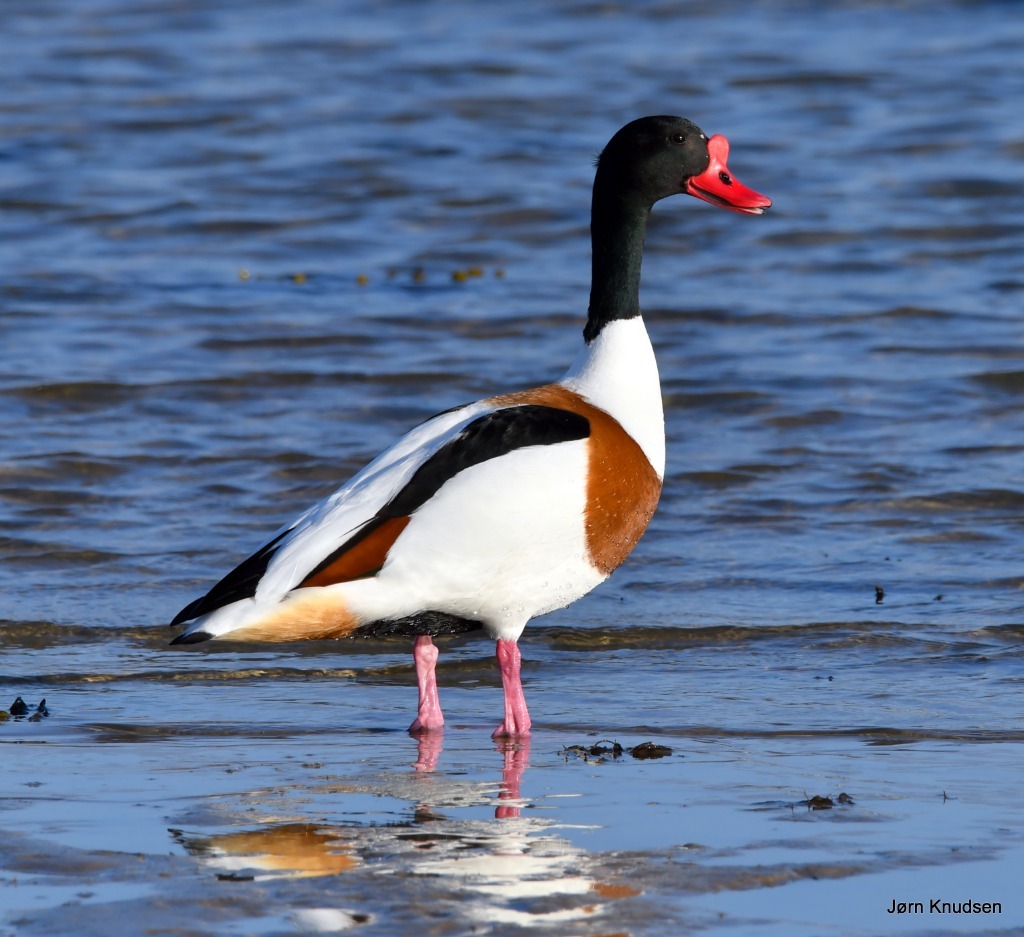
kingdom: Animalia
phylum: Chordata
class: Aves
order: Anseriformes
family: Anatidae
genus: Tadorna
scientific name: Tadorna tadorna
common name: Gravand
